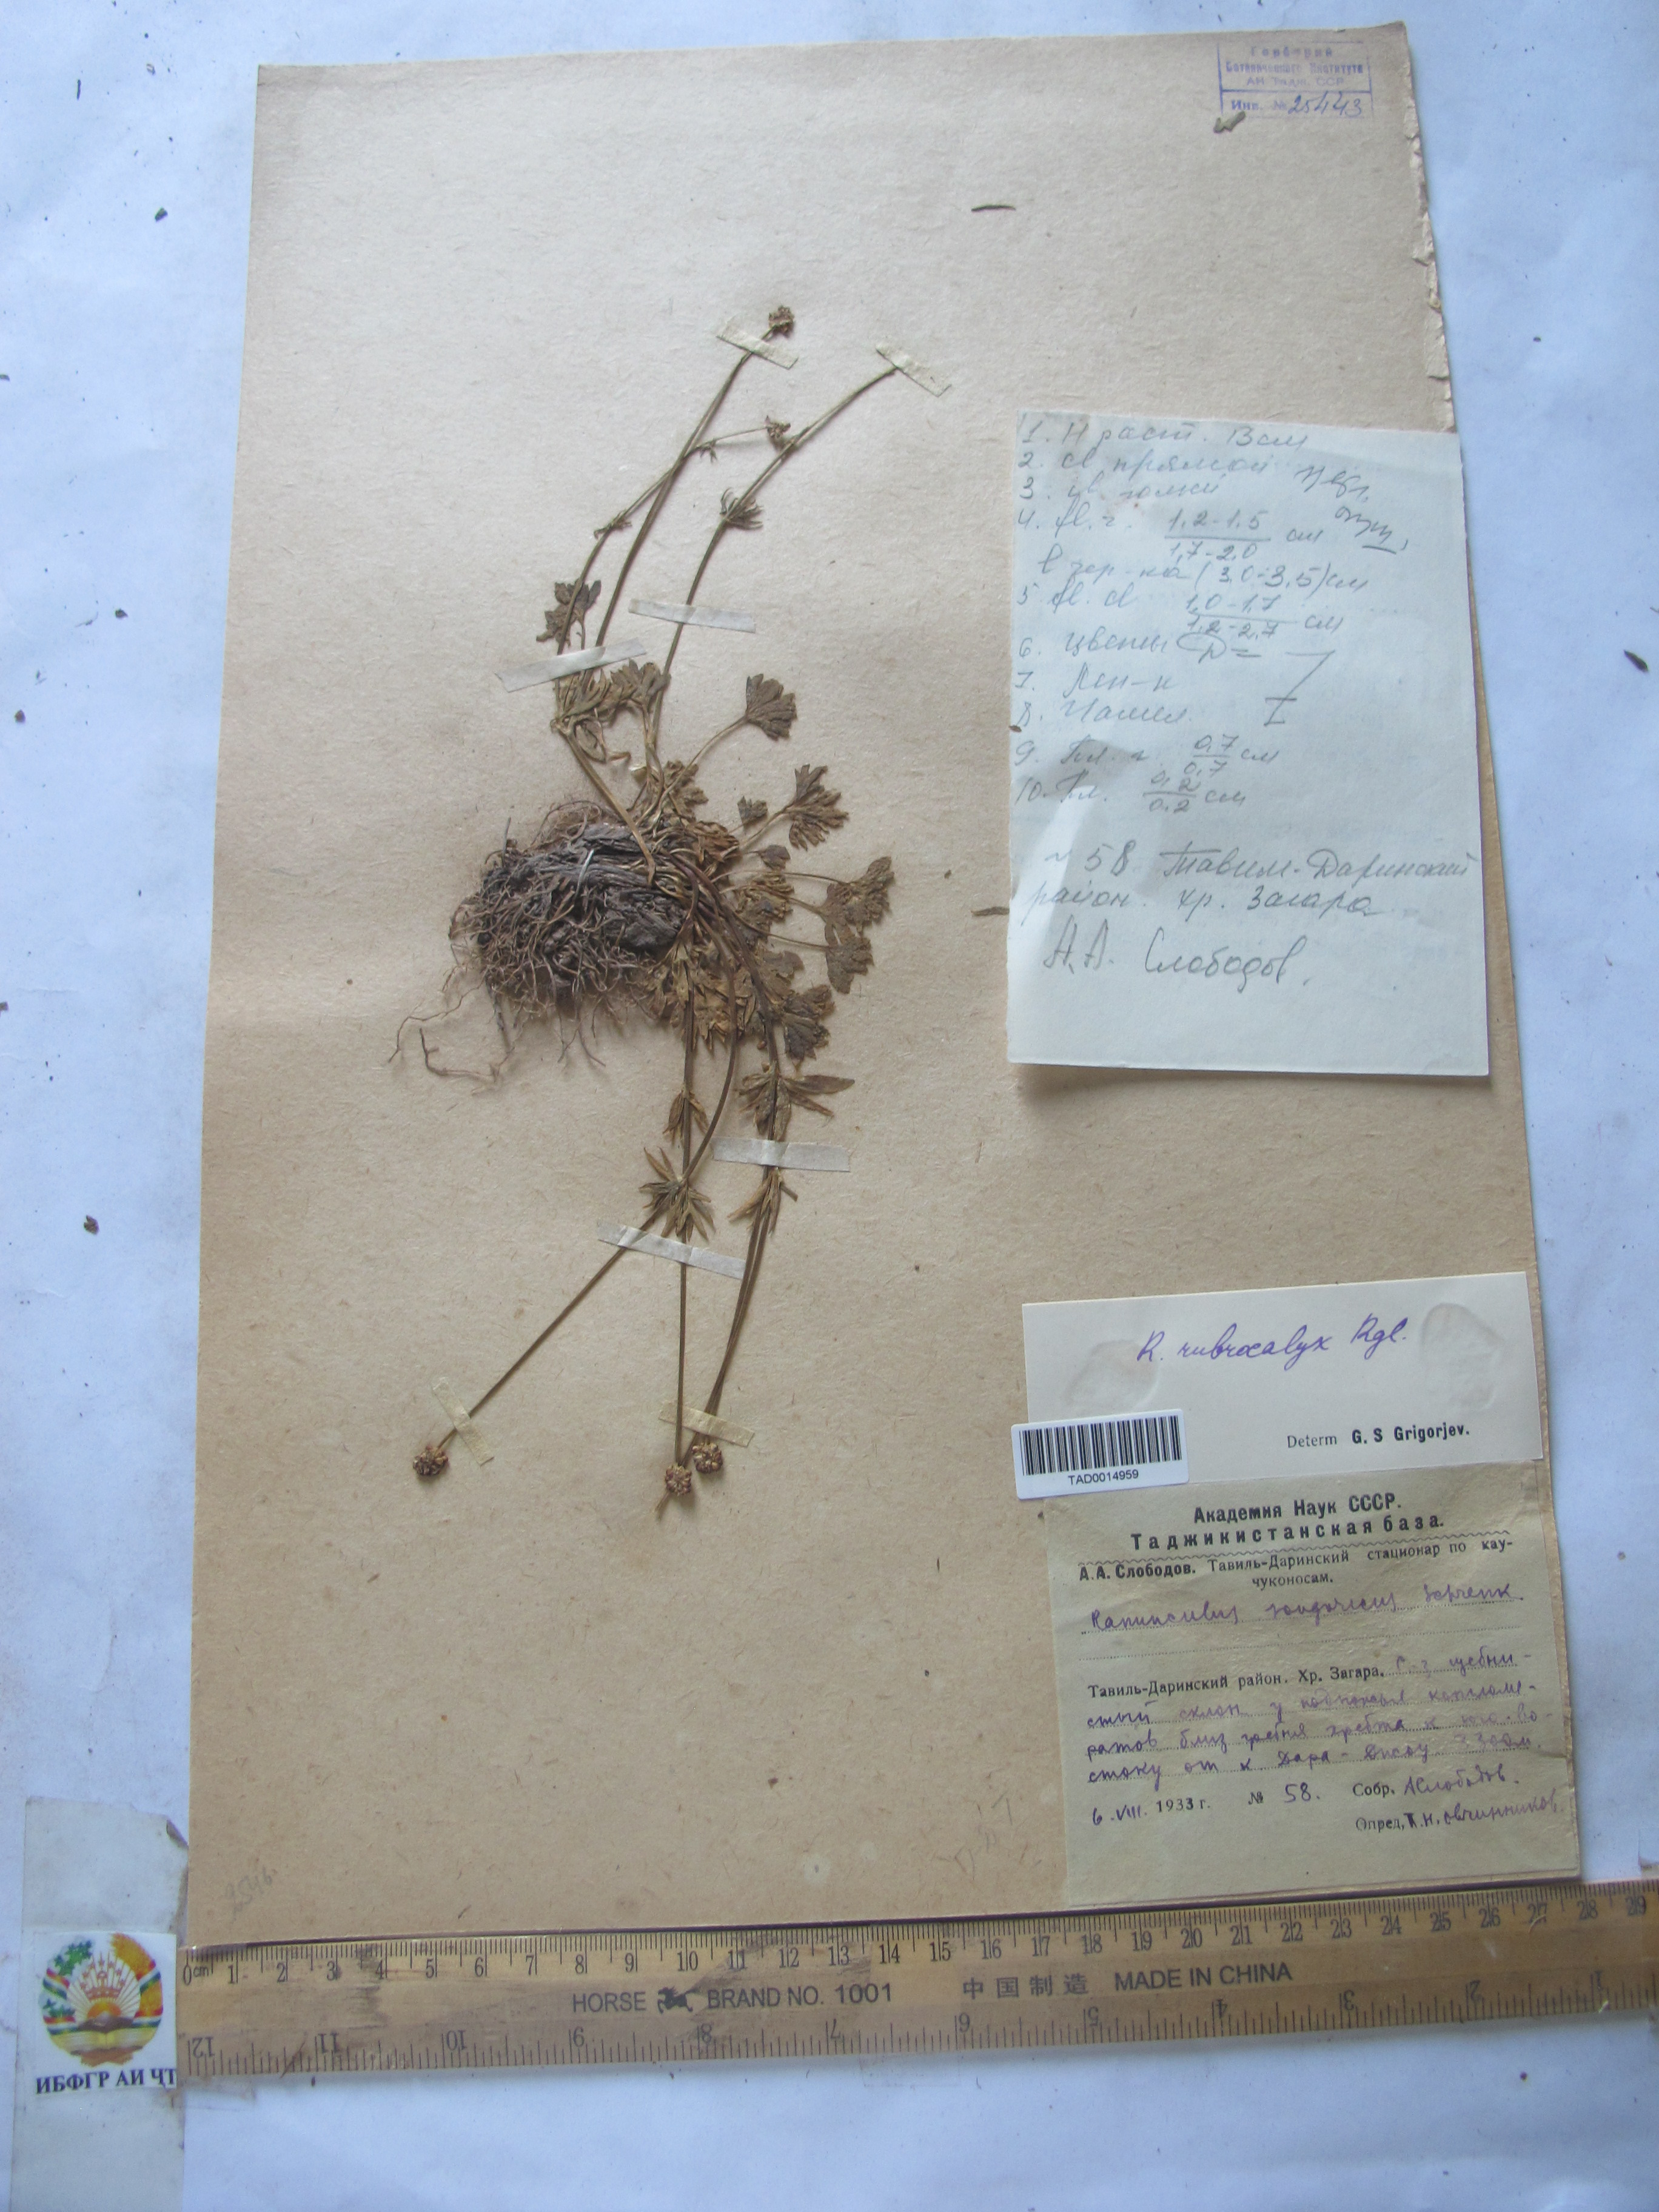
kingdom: Plantae
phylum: Tracheophyta
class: Magnoliopsida
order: Ranunculales
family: Ranunculaceae
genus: Ranunculus
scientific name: Ranunculus songaricus
